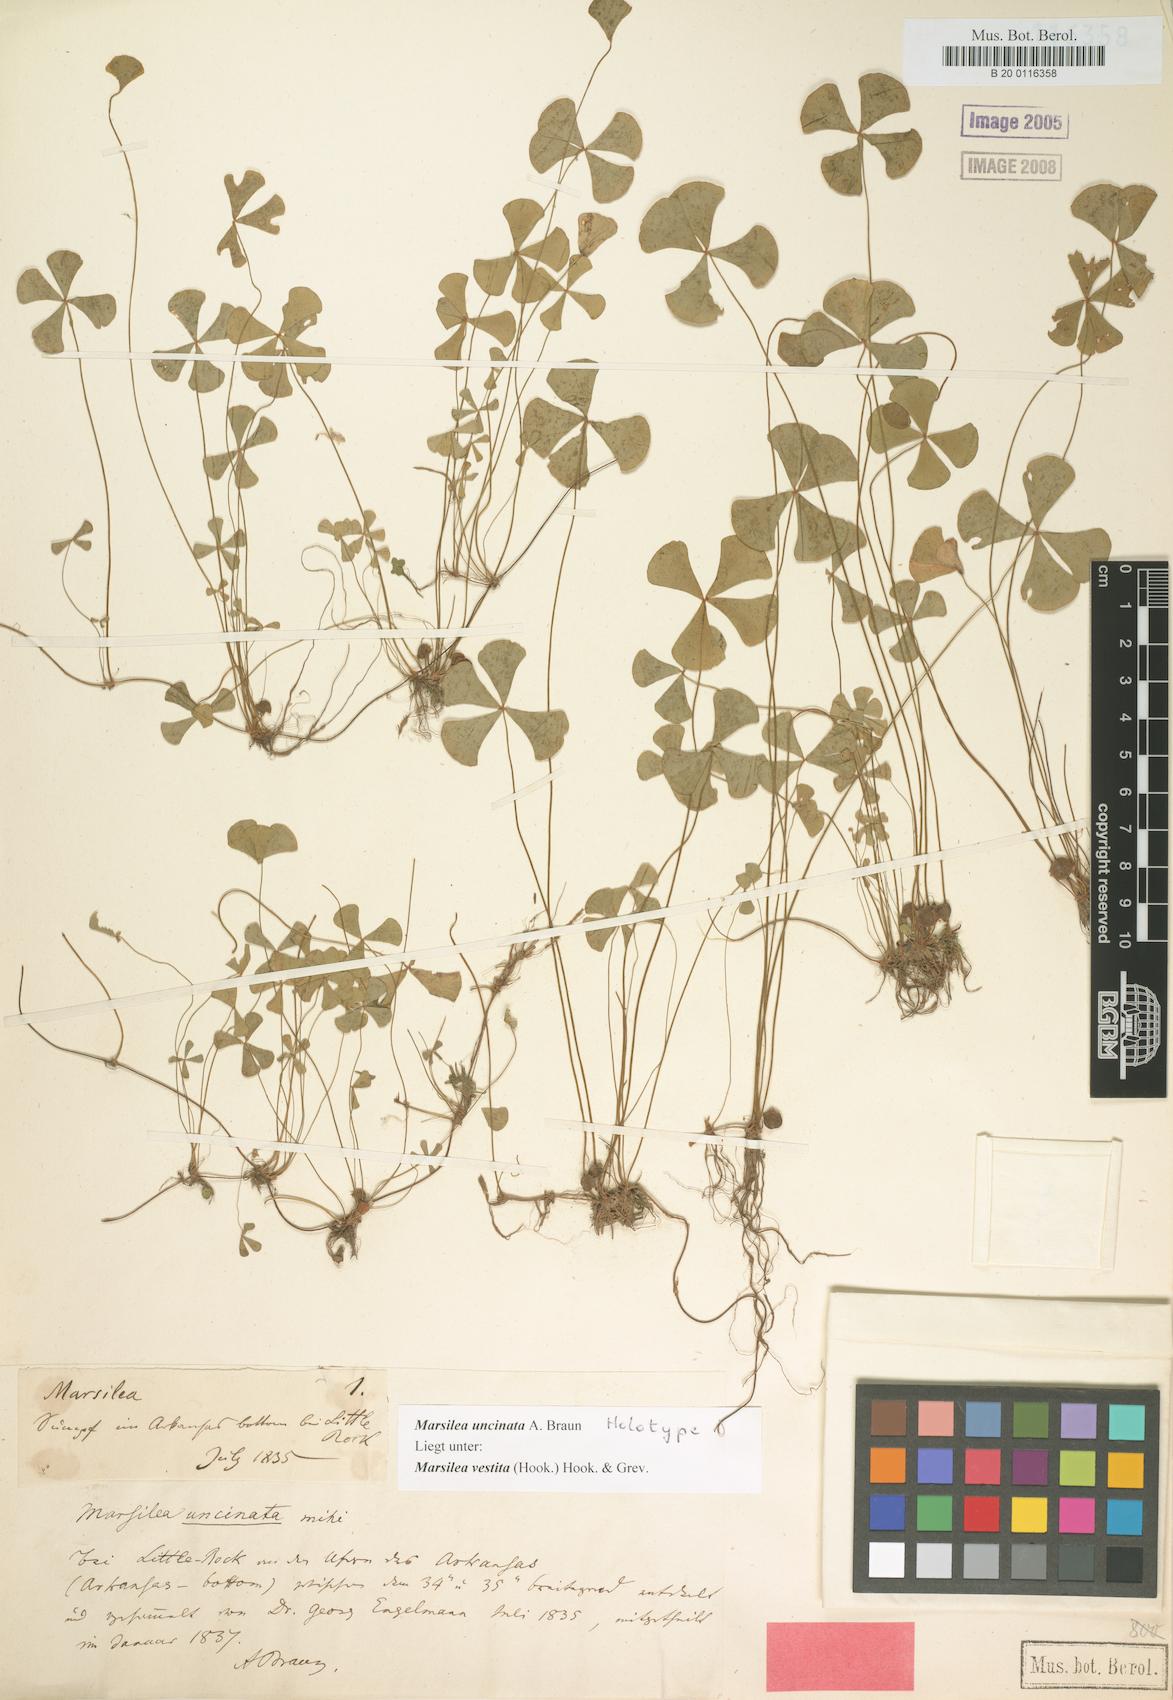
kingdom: Plantae
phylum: Tracheophyta
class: Polypodiopsida
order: Salviniales
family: Marsileaceae
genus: Marsilea
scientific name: Marsilea vestita
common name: Hooked-pepperwort
